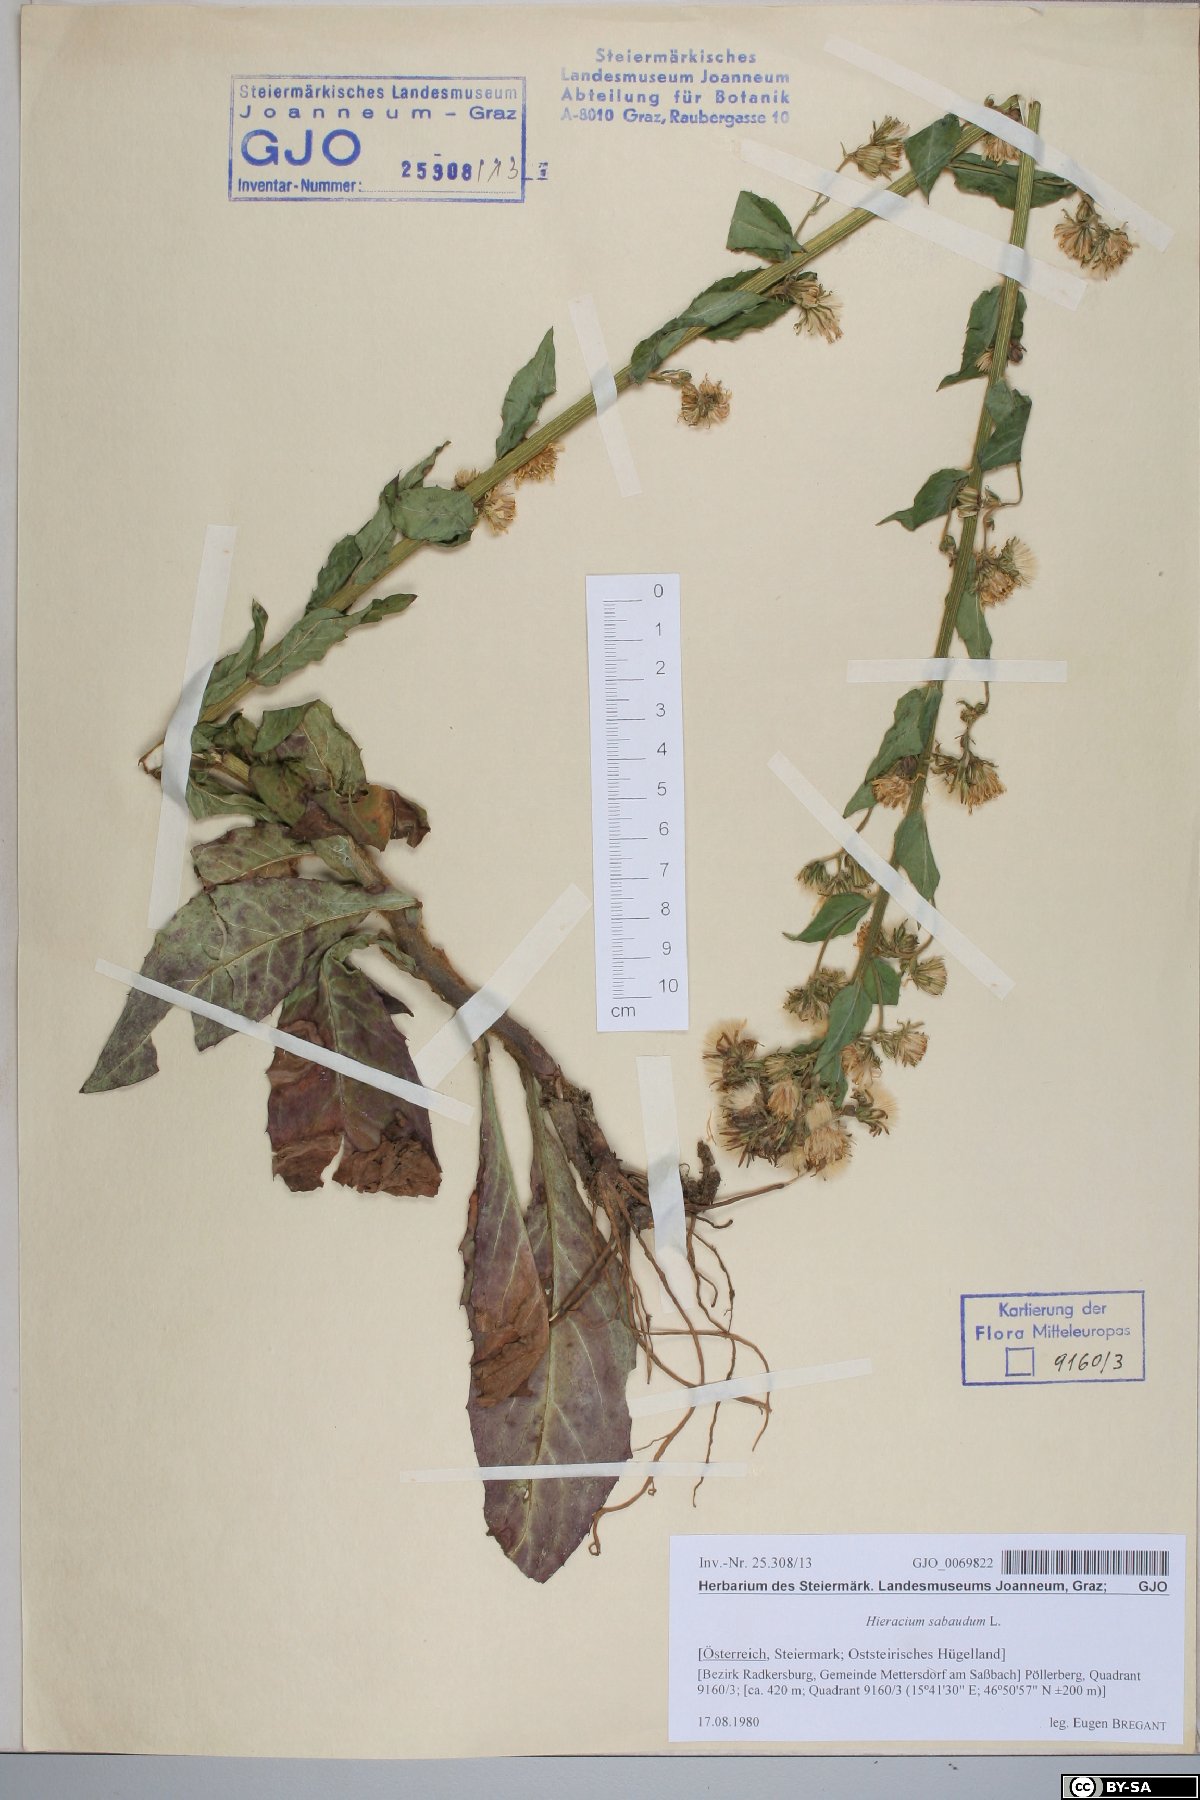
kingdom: Plantae
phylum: Tracheophyta
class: Magnoliopsida
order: Asterales
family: Asteraceae
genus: Hieracium
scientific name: Hieracium sabaudum
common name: New england hawkweed
